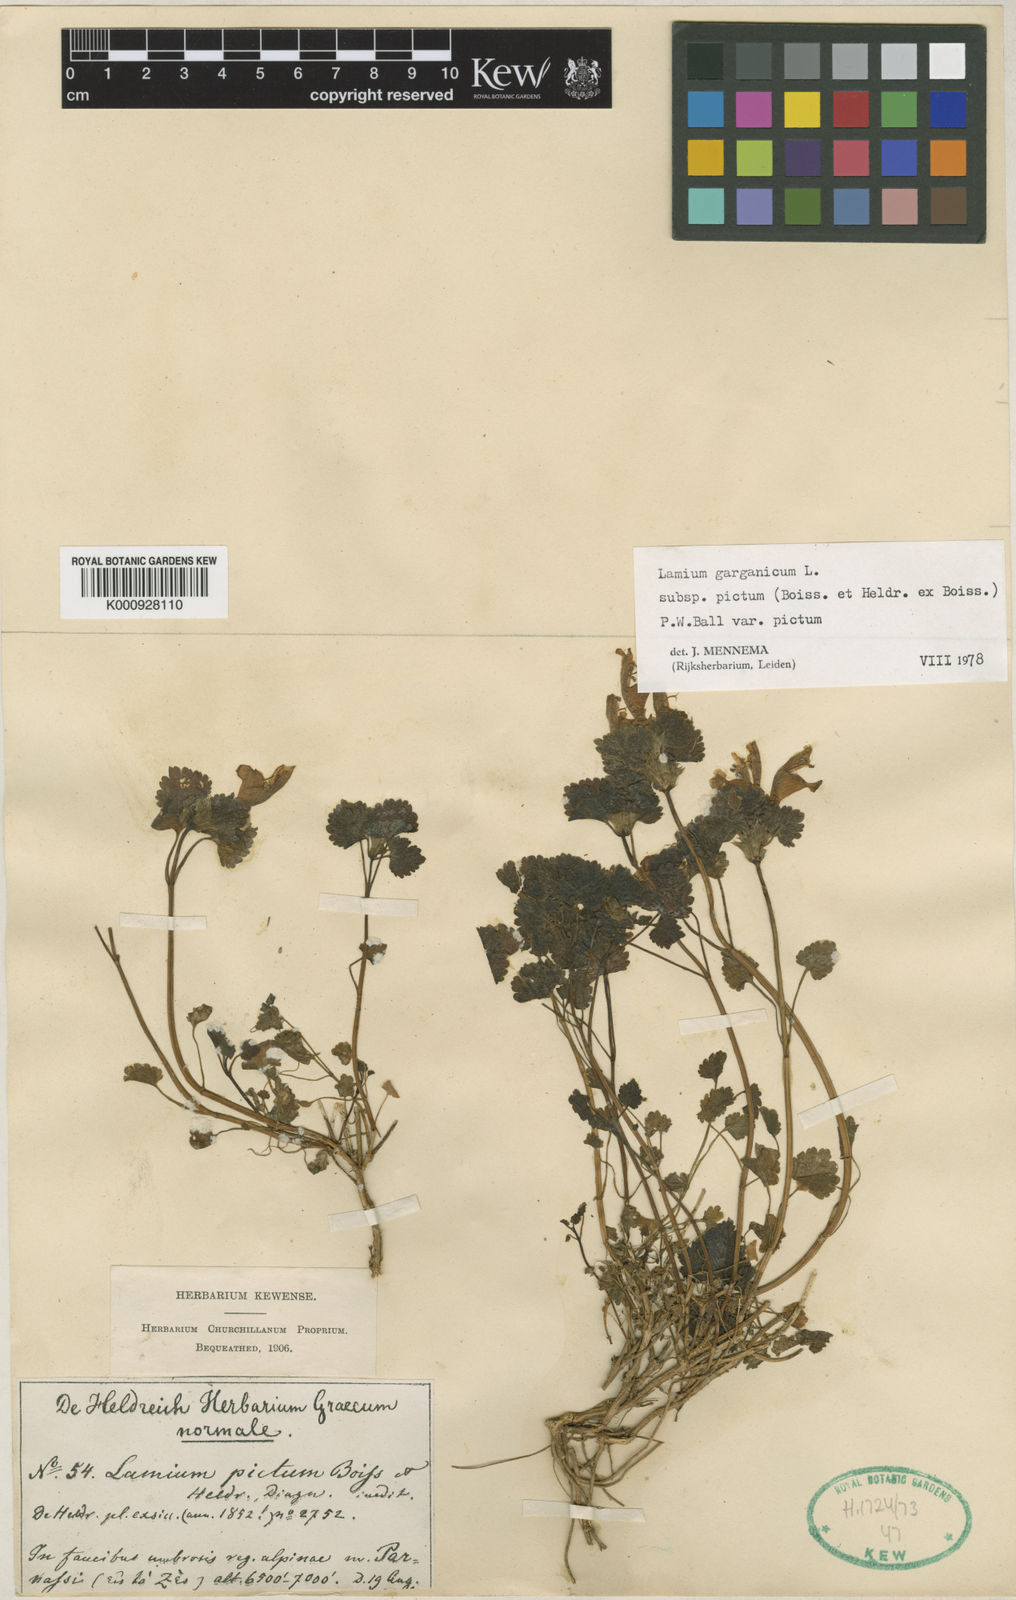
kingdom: Plantae
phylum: Tracheophyta
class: Magnoliopsida
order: Lamiales
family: Lamiaceae
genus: Lamium
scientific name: Lamium garganicum
